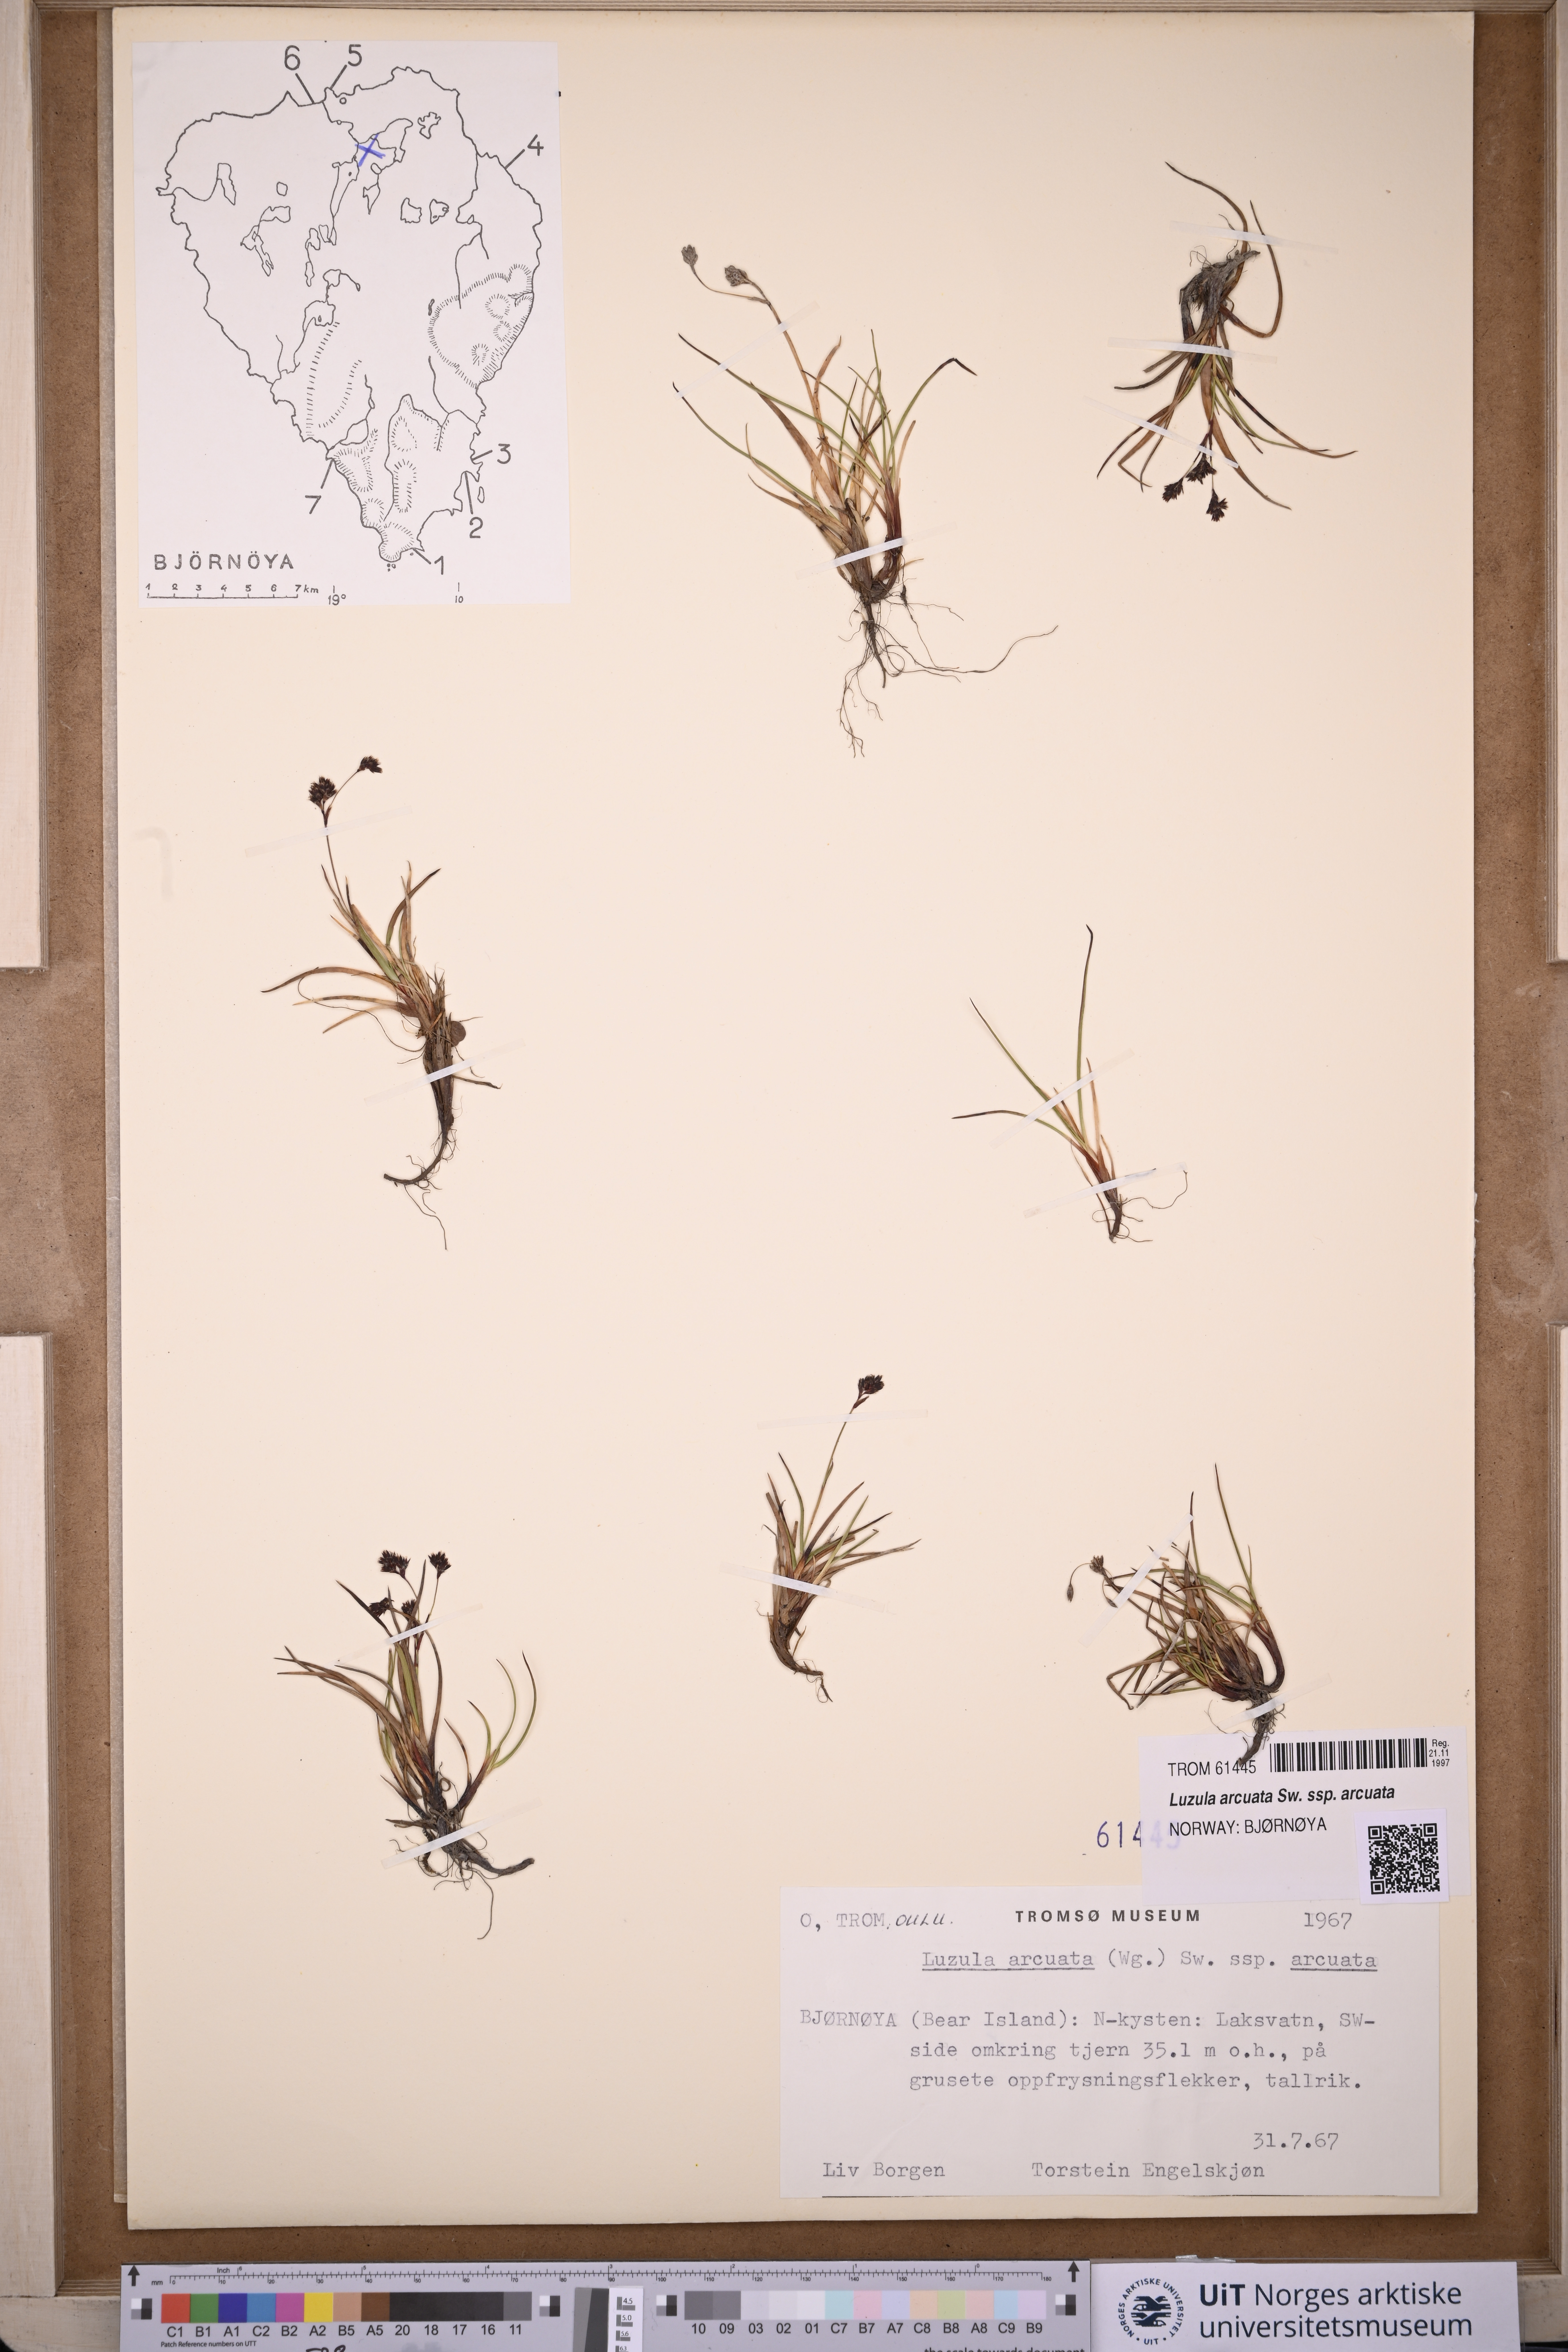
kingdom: Plantae
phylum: Tracheophyta
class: Liliopsida
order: Poales
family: Juncaceae
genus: Luzula
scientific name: Luzula arcuata
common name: Curved wood-rush
